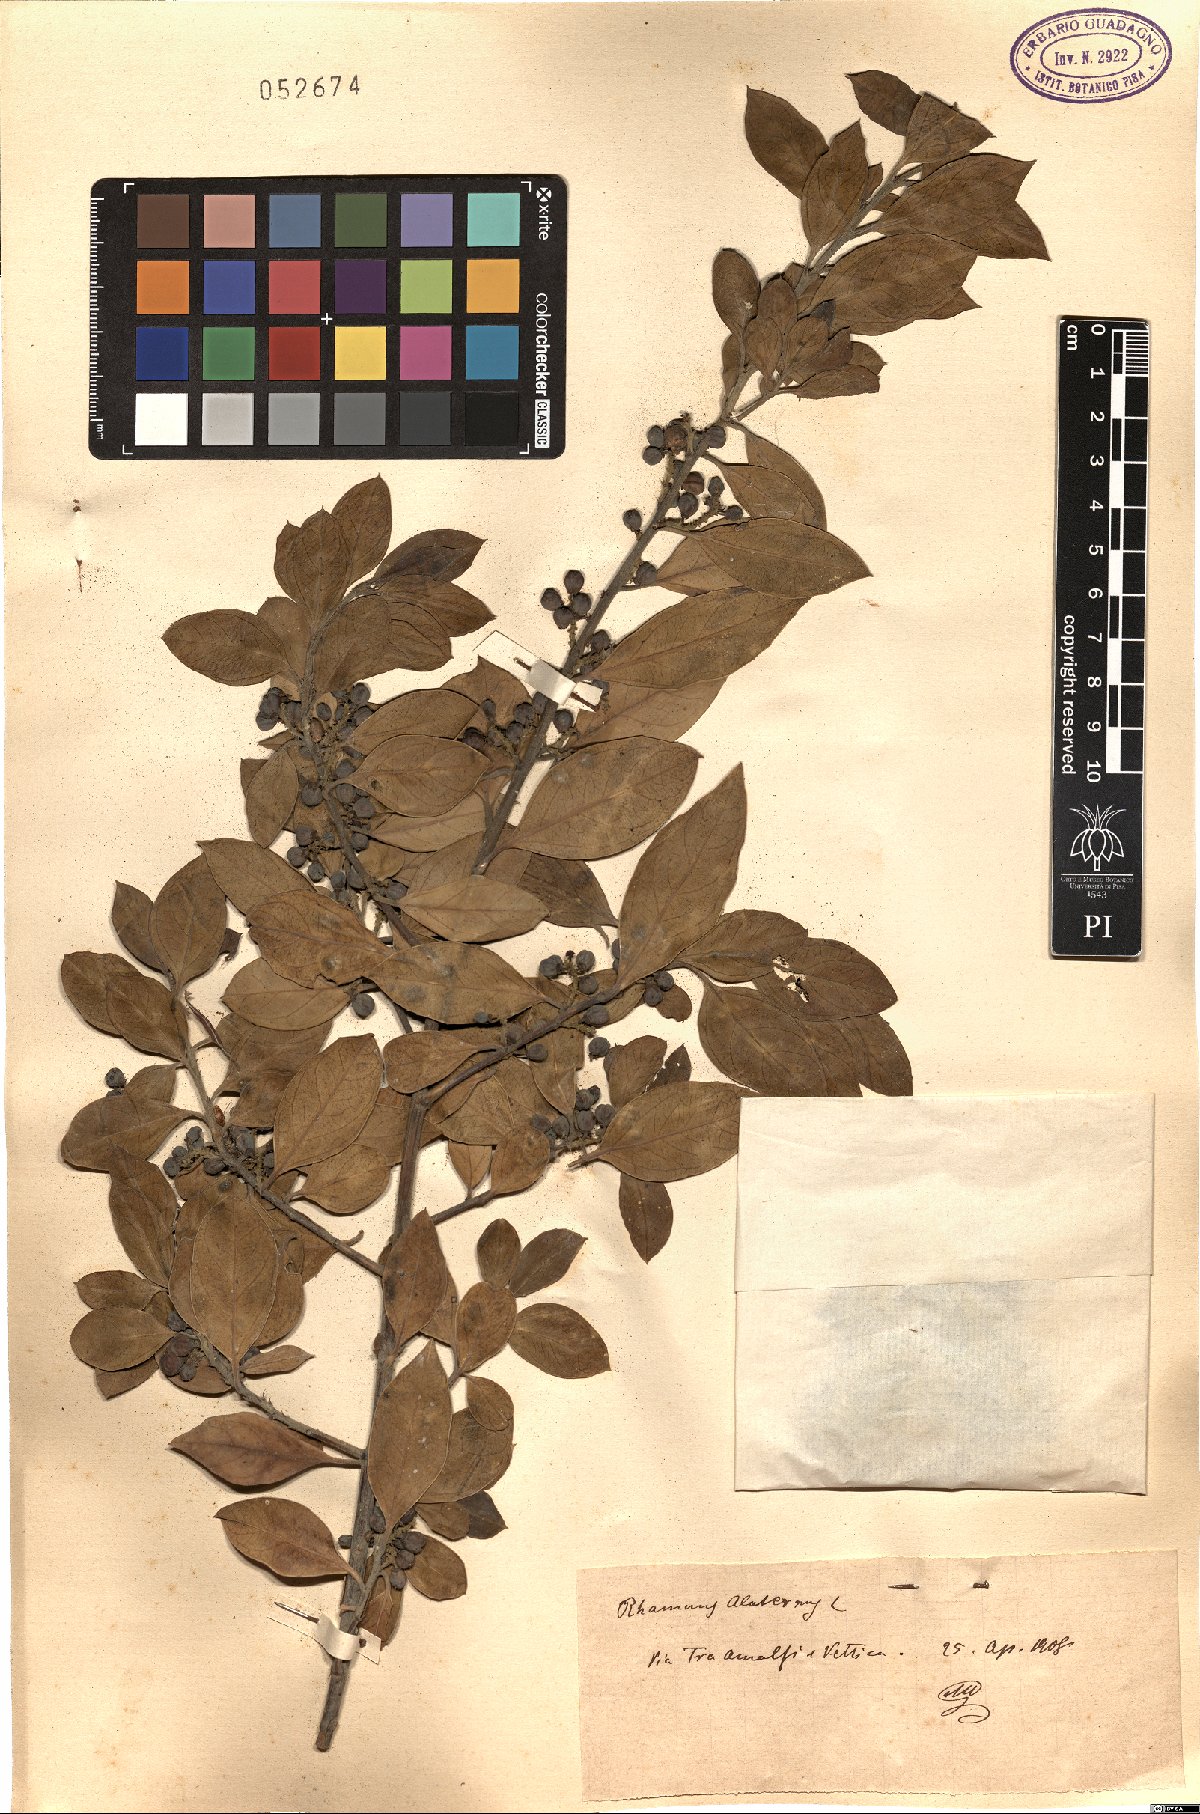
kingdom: Plantae
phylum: Tracheophyta
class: Magnoliopsida
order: Rosales
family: Rhamnaceae
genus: Rhamnus
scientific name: Rhamnus alaternus
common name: Mediterranean buckthorn
